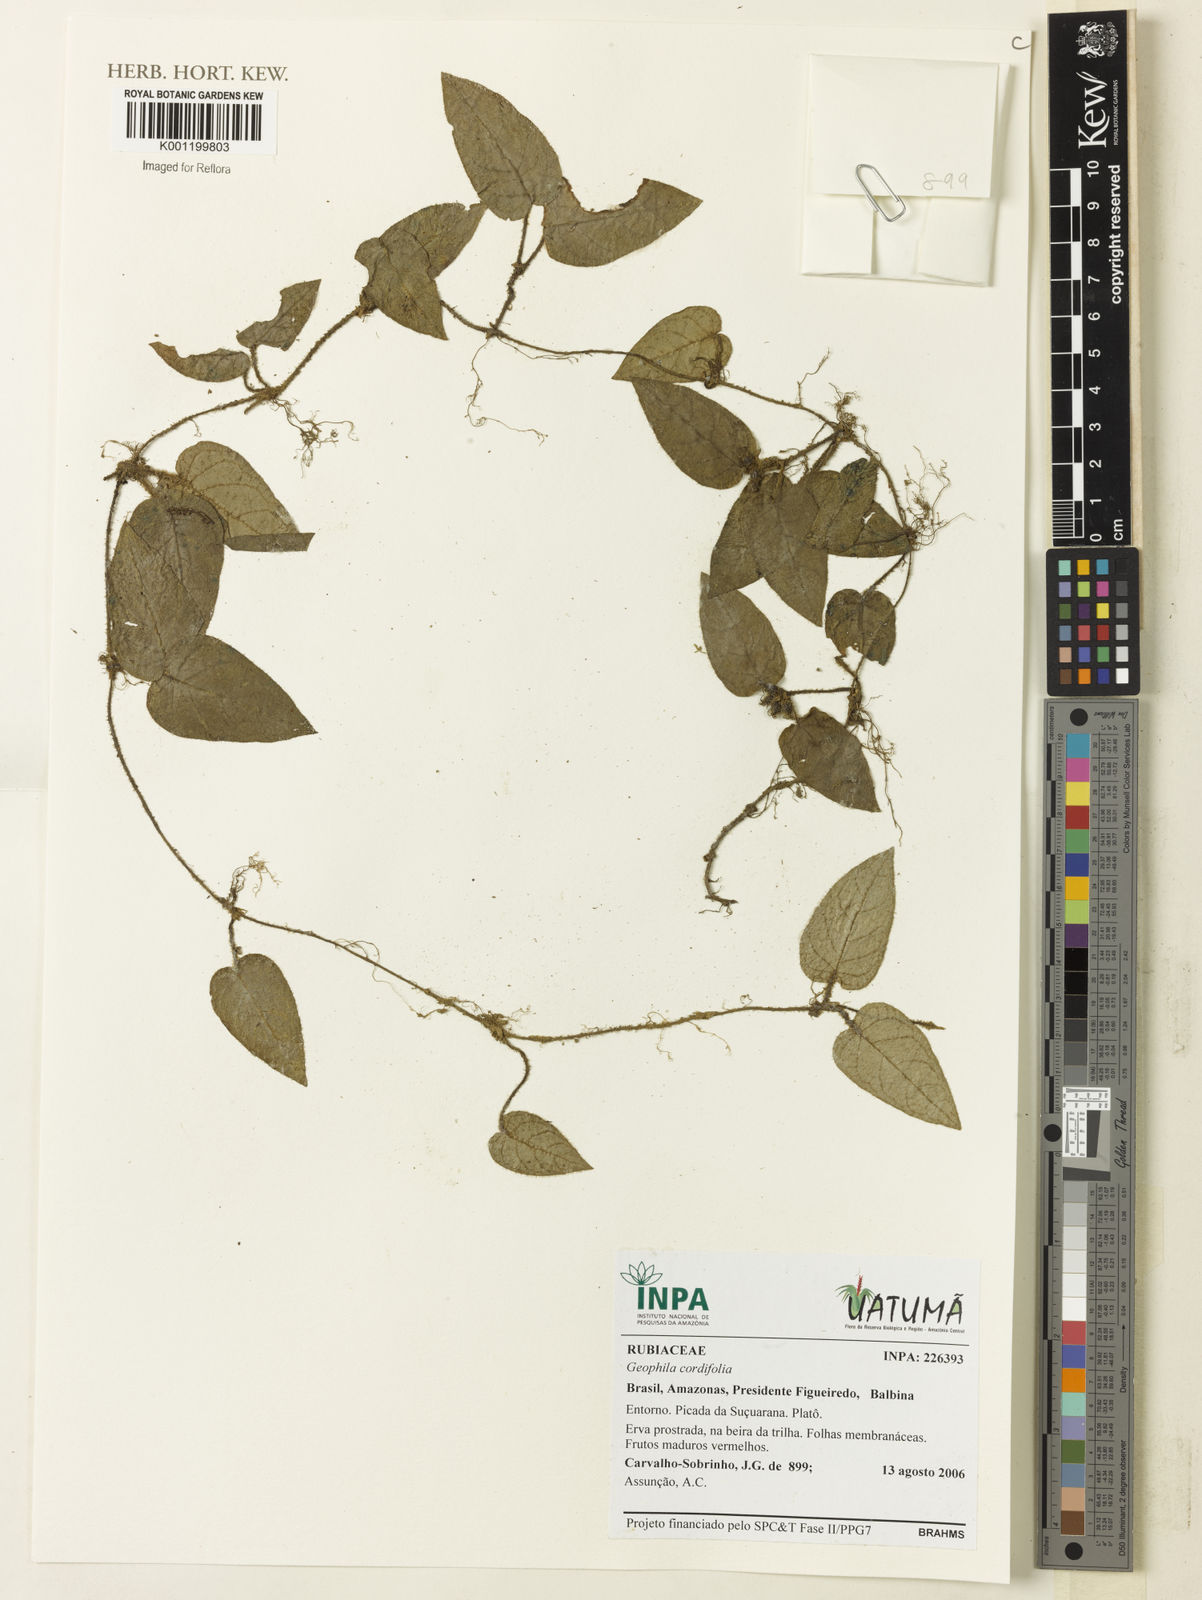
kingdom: Plantae
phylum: Tracheophyta
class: Magnoliopsida
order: Gentianales
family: Rubiaceae
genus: Geophila
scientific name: Geophila cordifolia
